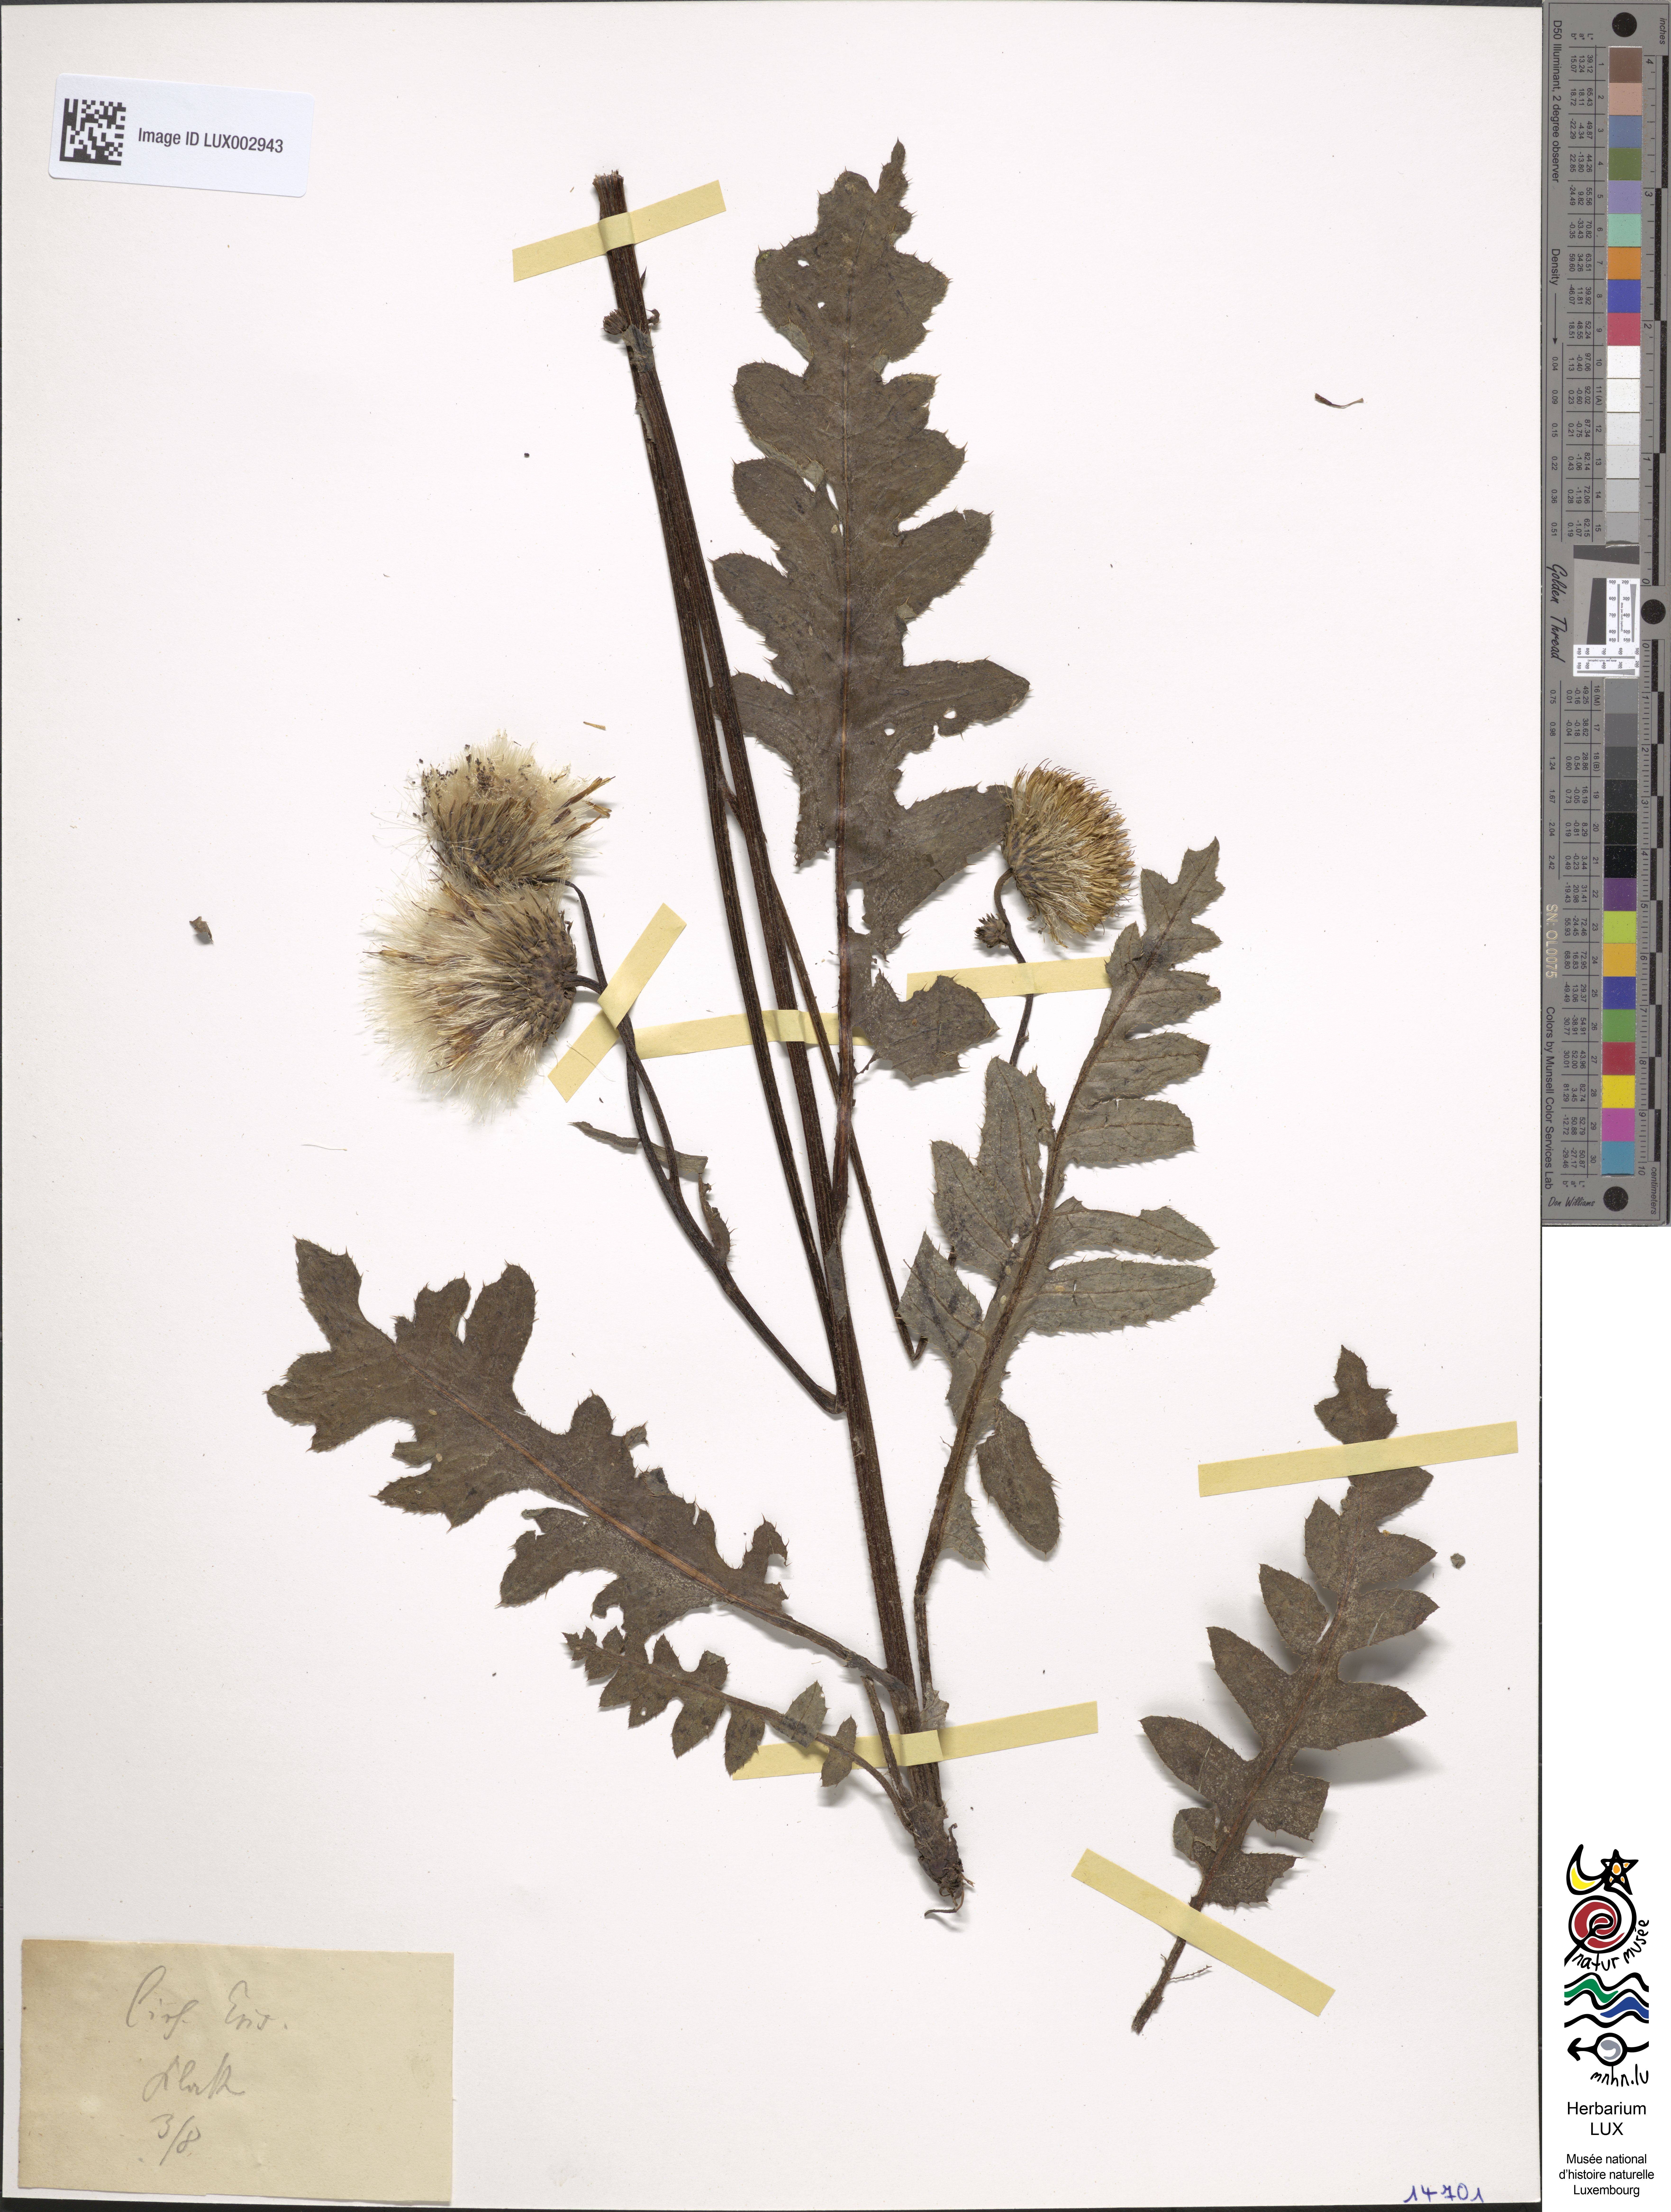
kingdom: Plantae
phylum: Tracheophyta
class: Magnoliopsida
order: Asterales
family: Asteraceae
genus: Cirsium
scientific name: Cirsium erisithales
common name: Yellow thistle
